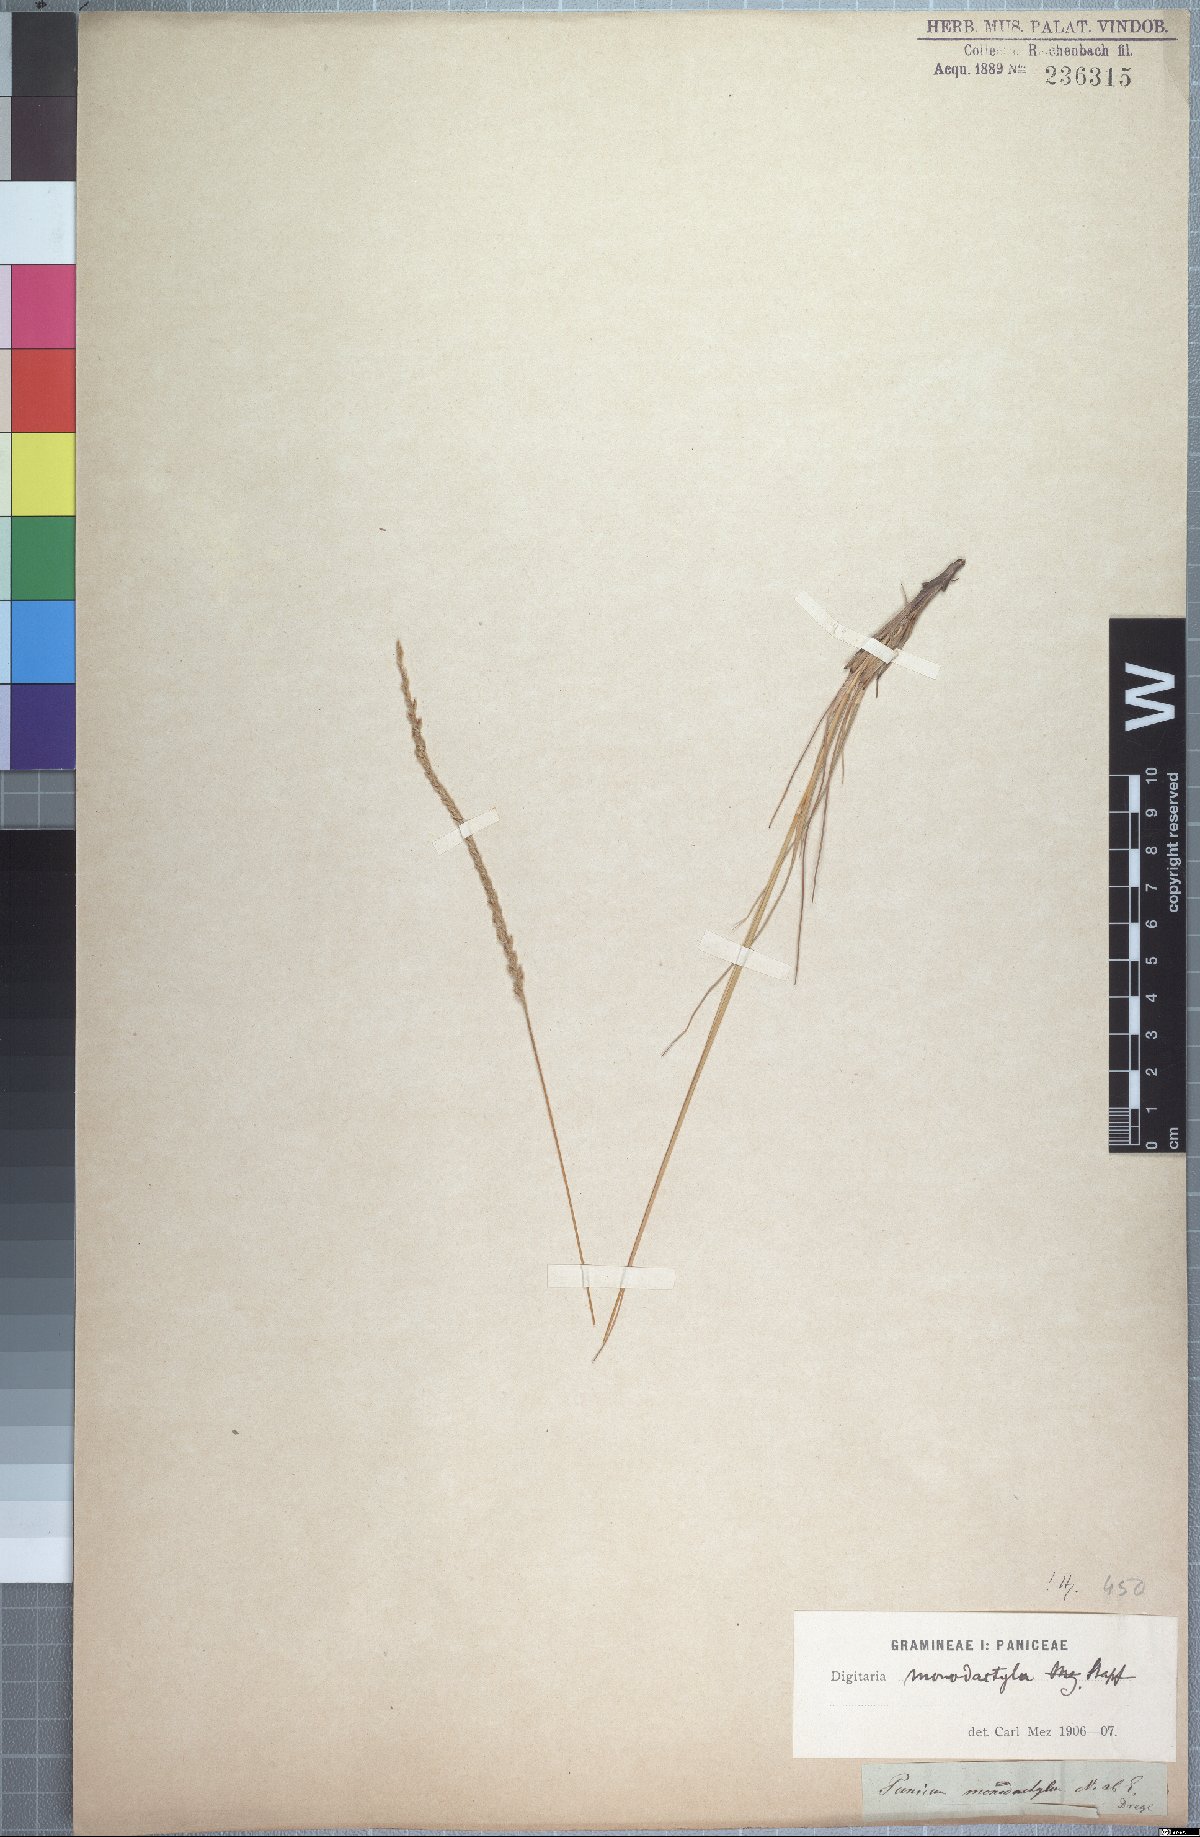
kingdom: Plantae
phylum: Tracheophyta
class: Liliopsida
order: Poales
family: Poaceae
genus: Digitaria
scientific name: Digitaria monodactyla
